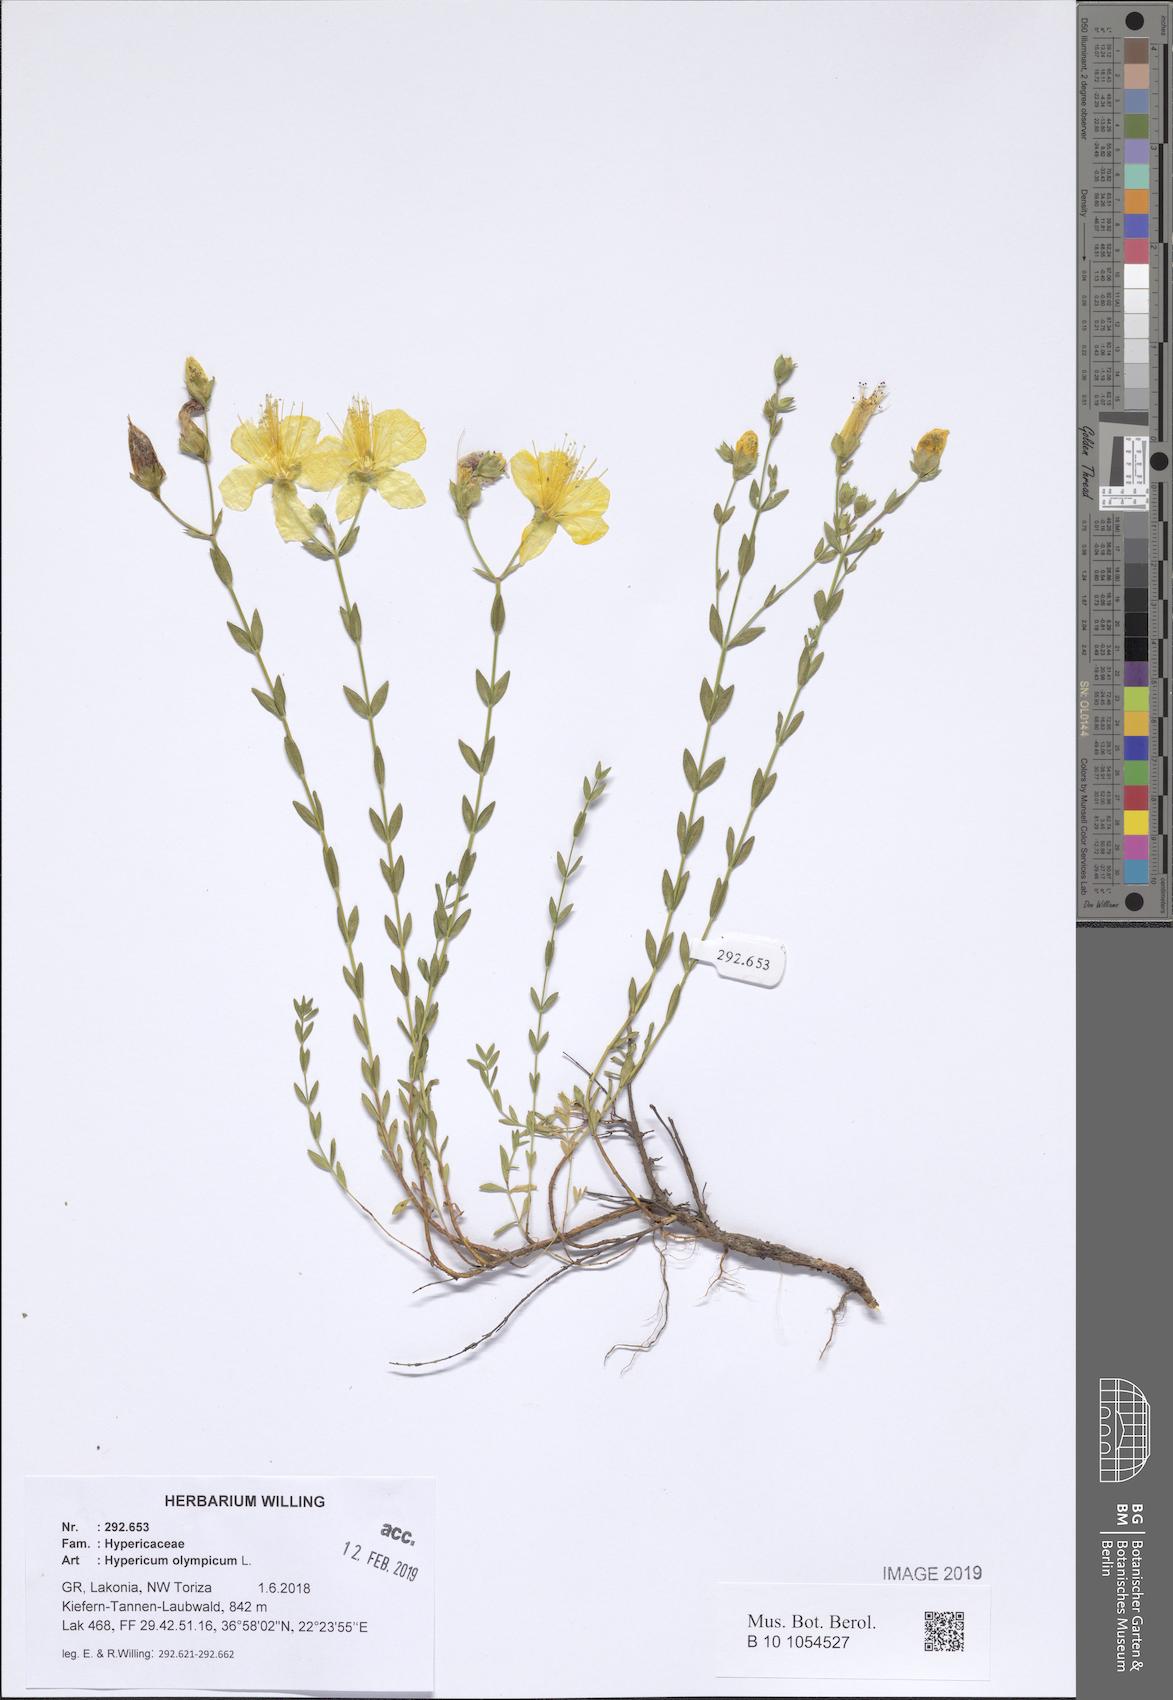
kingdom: Plantae
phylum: Tracheophyta
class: Magnoliopsida
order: Malpighiales
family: Hypericaceae
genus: Hypericum
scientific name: Hypericum olympicum
